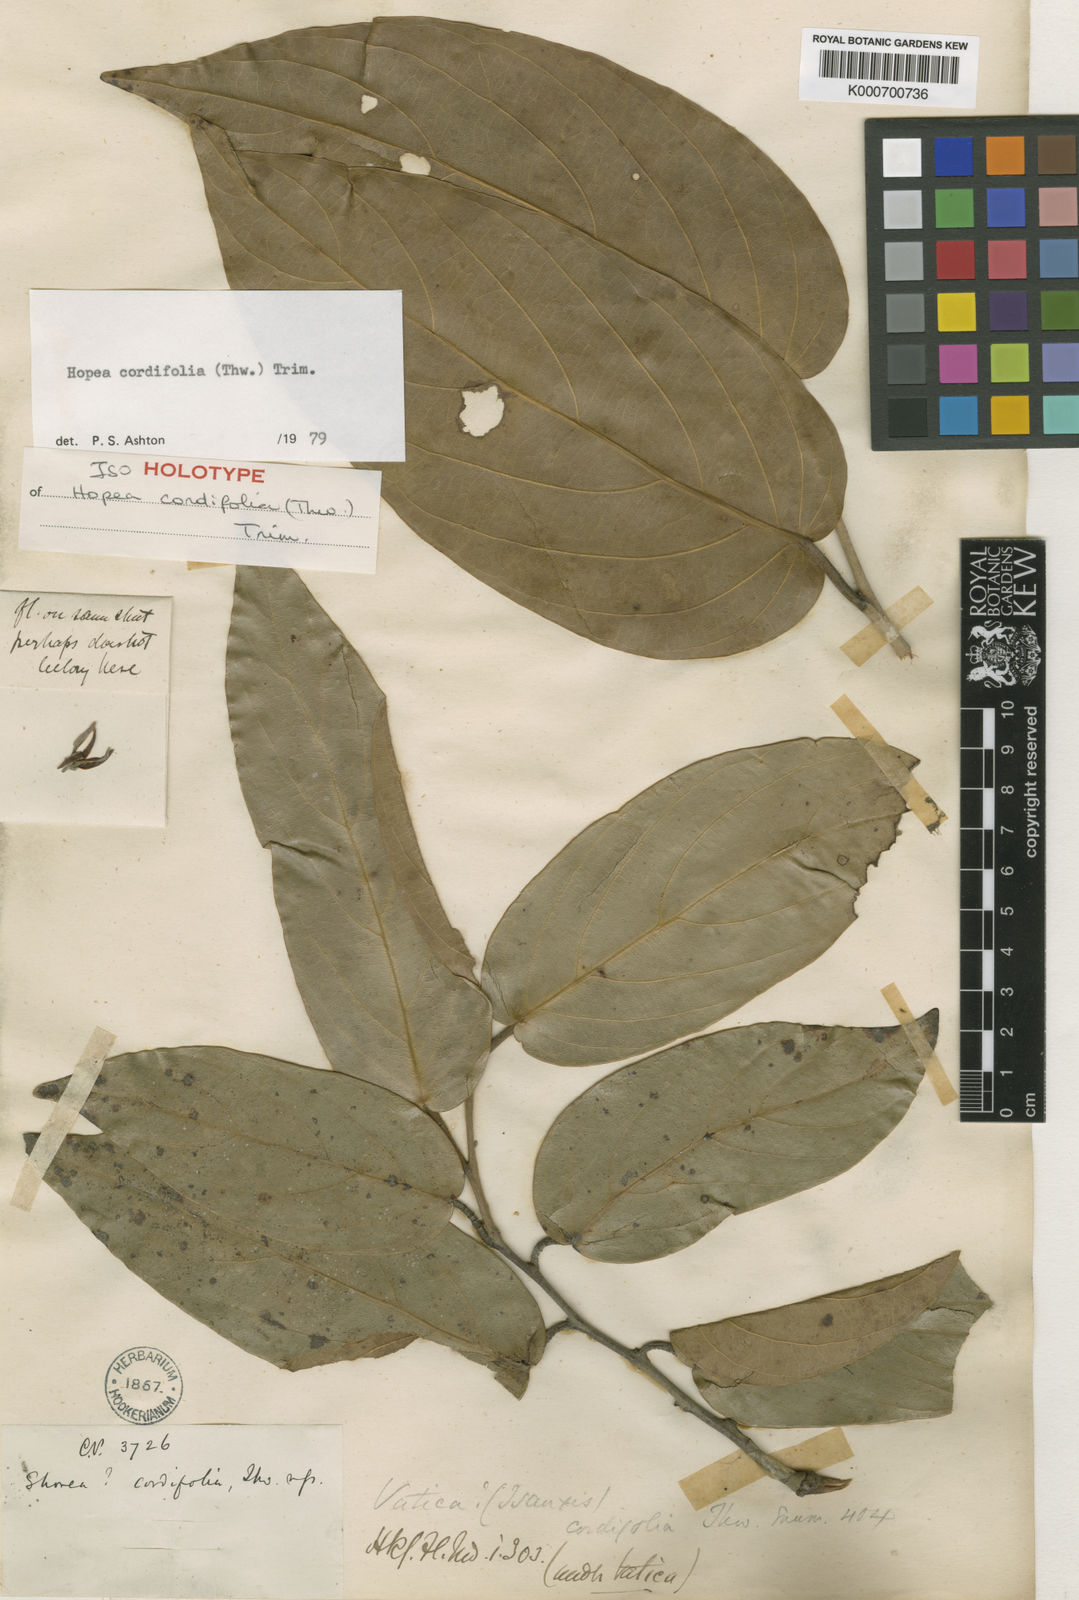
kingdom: Plantae
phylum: Tracheophyta
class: Magnoliopsida
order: Malvales
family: Dipterocarpaceae
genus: Hopea
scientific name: Hopea cordifolia
